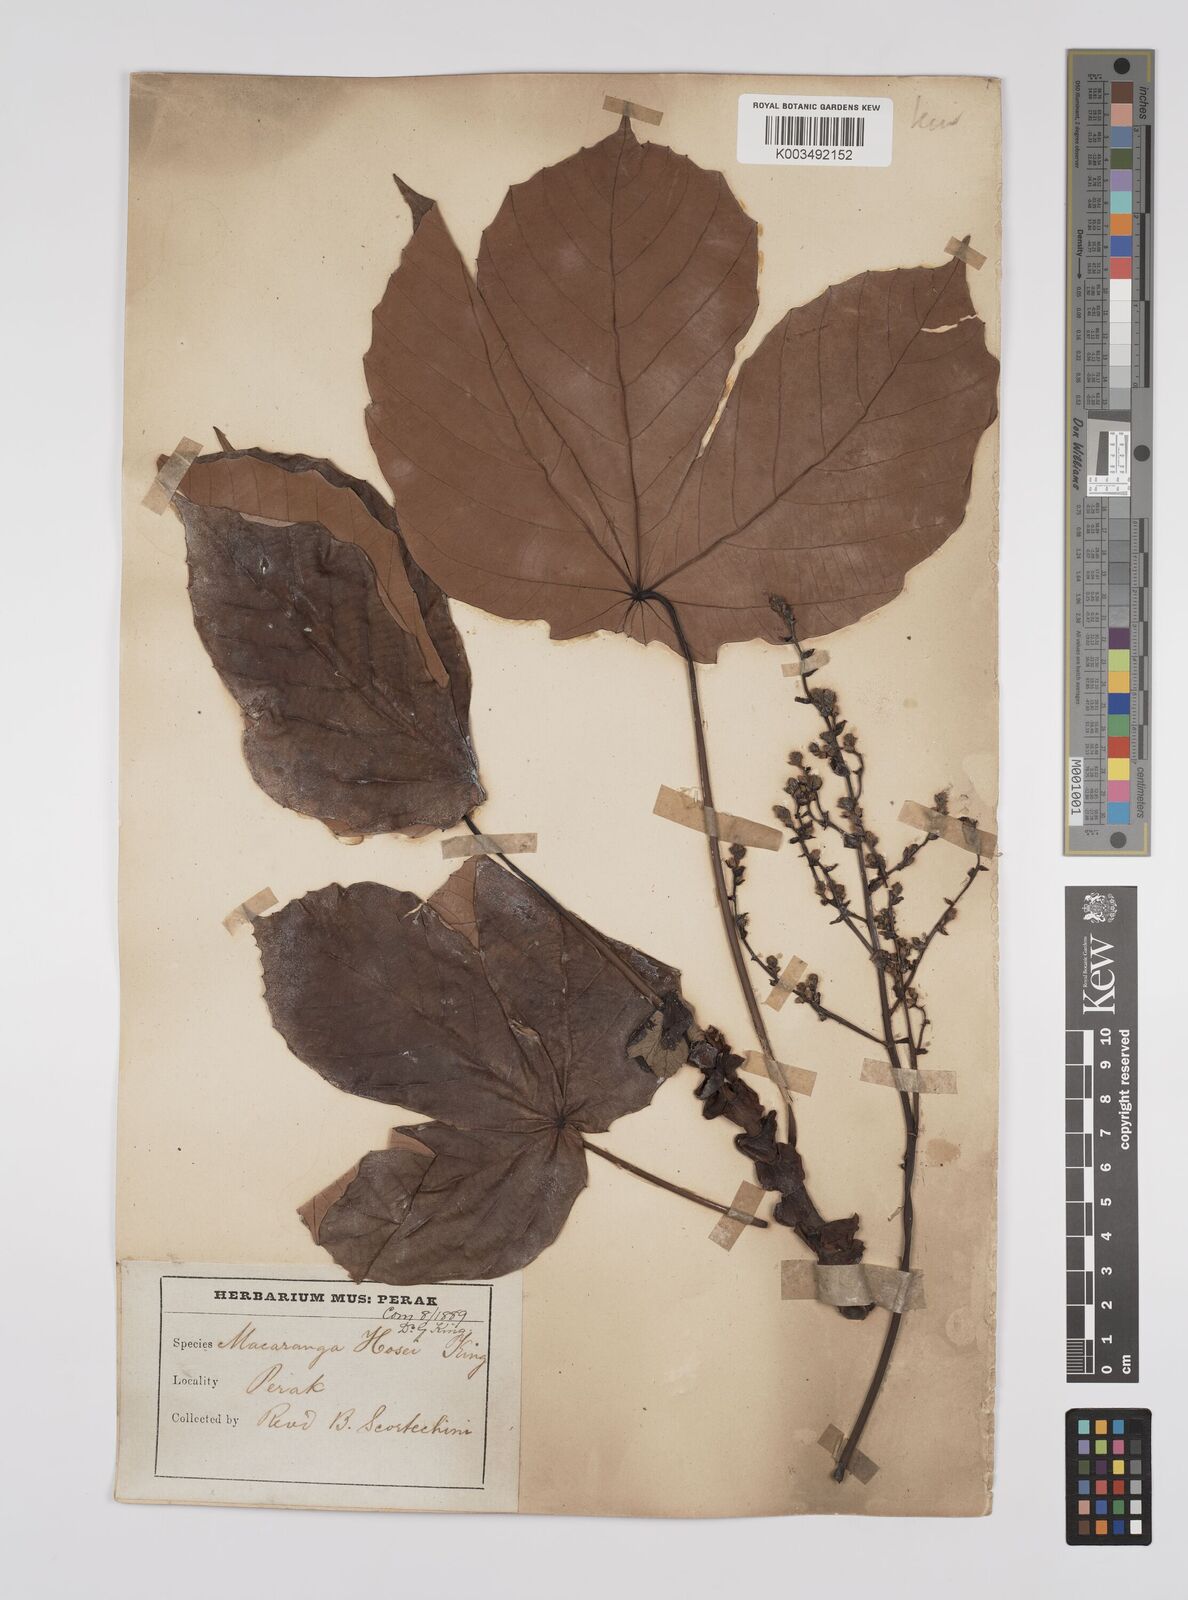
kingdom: Plantae
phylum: Tracheophyta
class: Magnoliopsida
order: Malpighiales
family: Euphorbiaceae
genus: Macaranga
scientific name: Macaranga hosei
